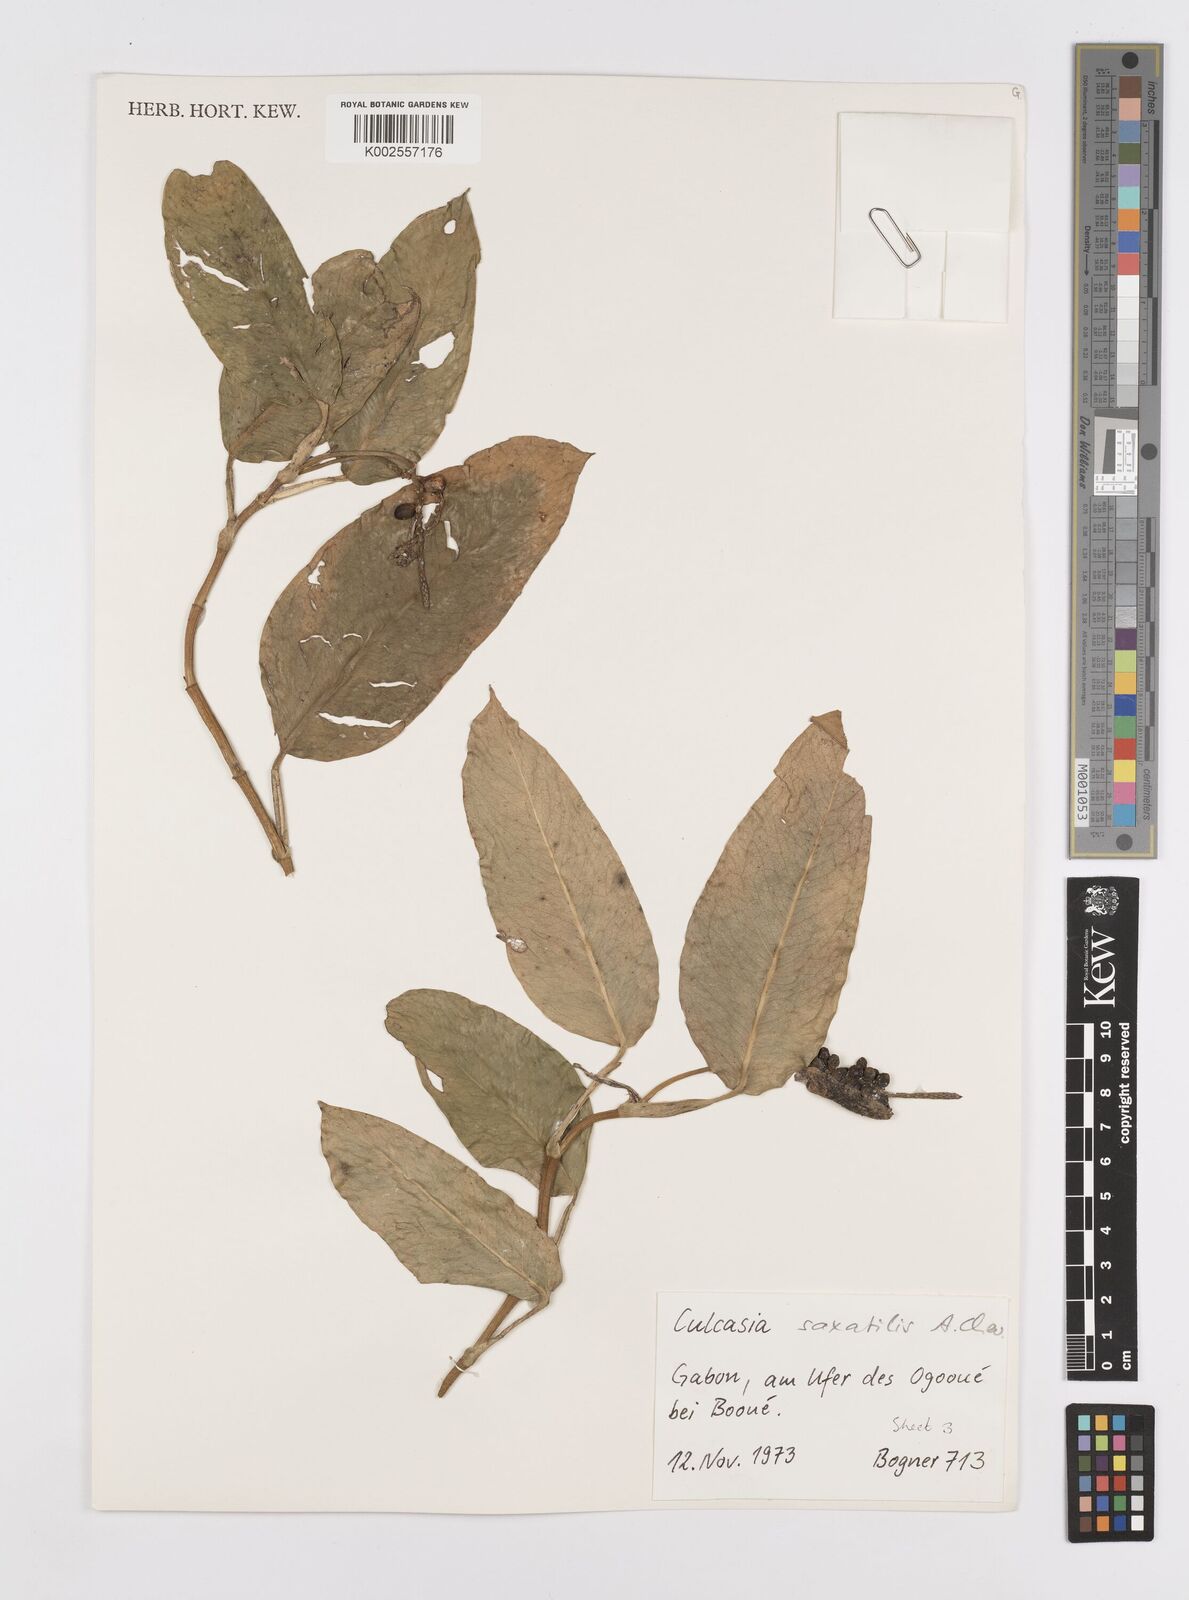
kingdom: Plantae
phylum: Tracheophyta
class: Liliopsida
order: Alismatales
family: Araceae
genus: Culcasia
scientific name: Culcasia scandens
